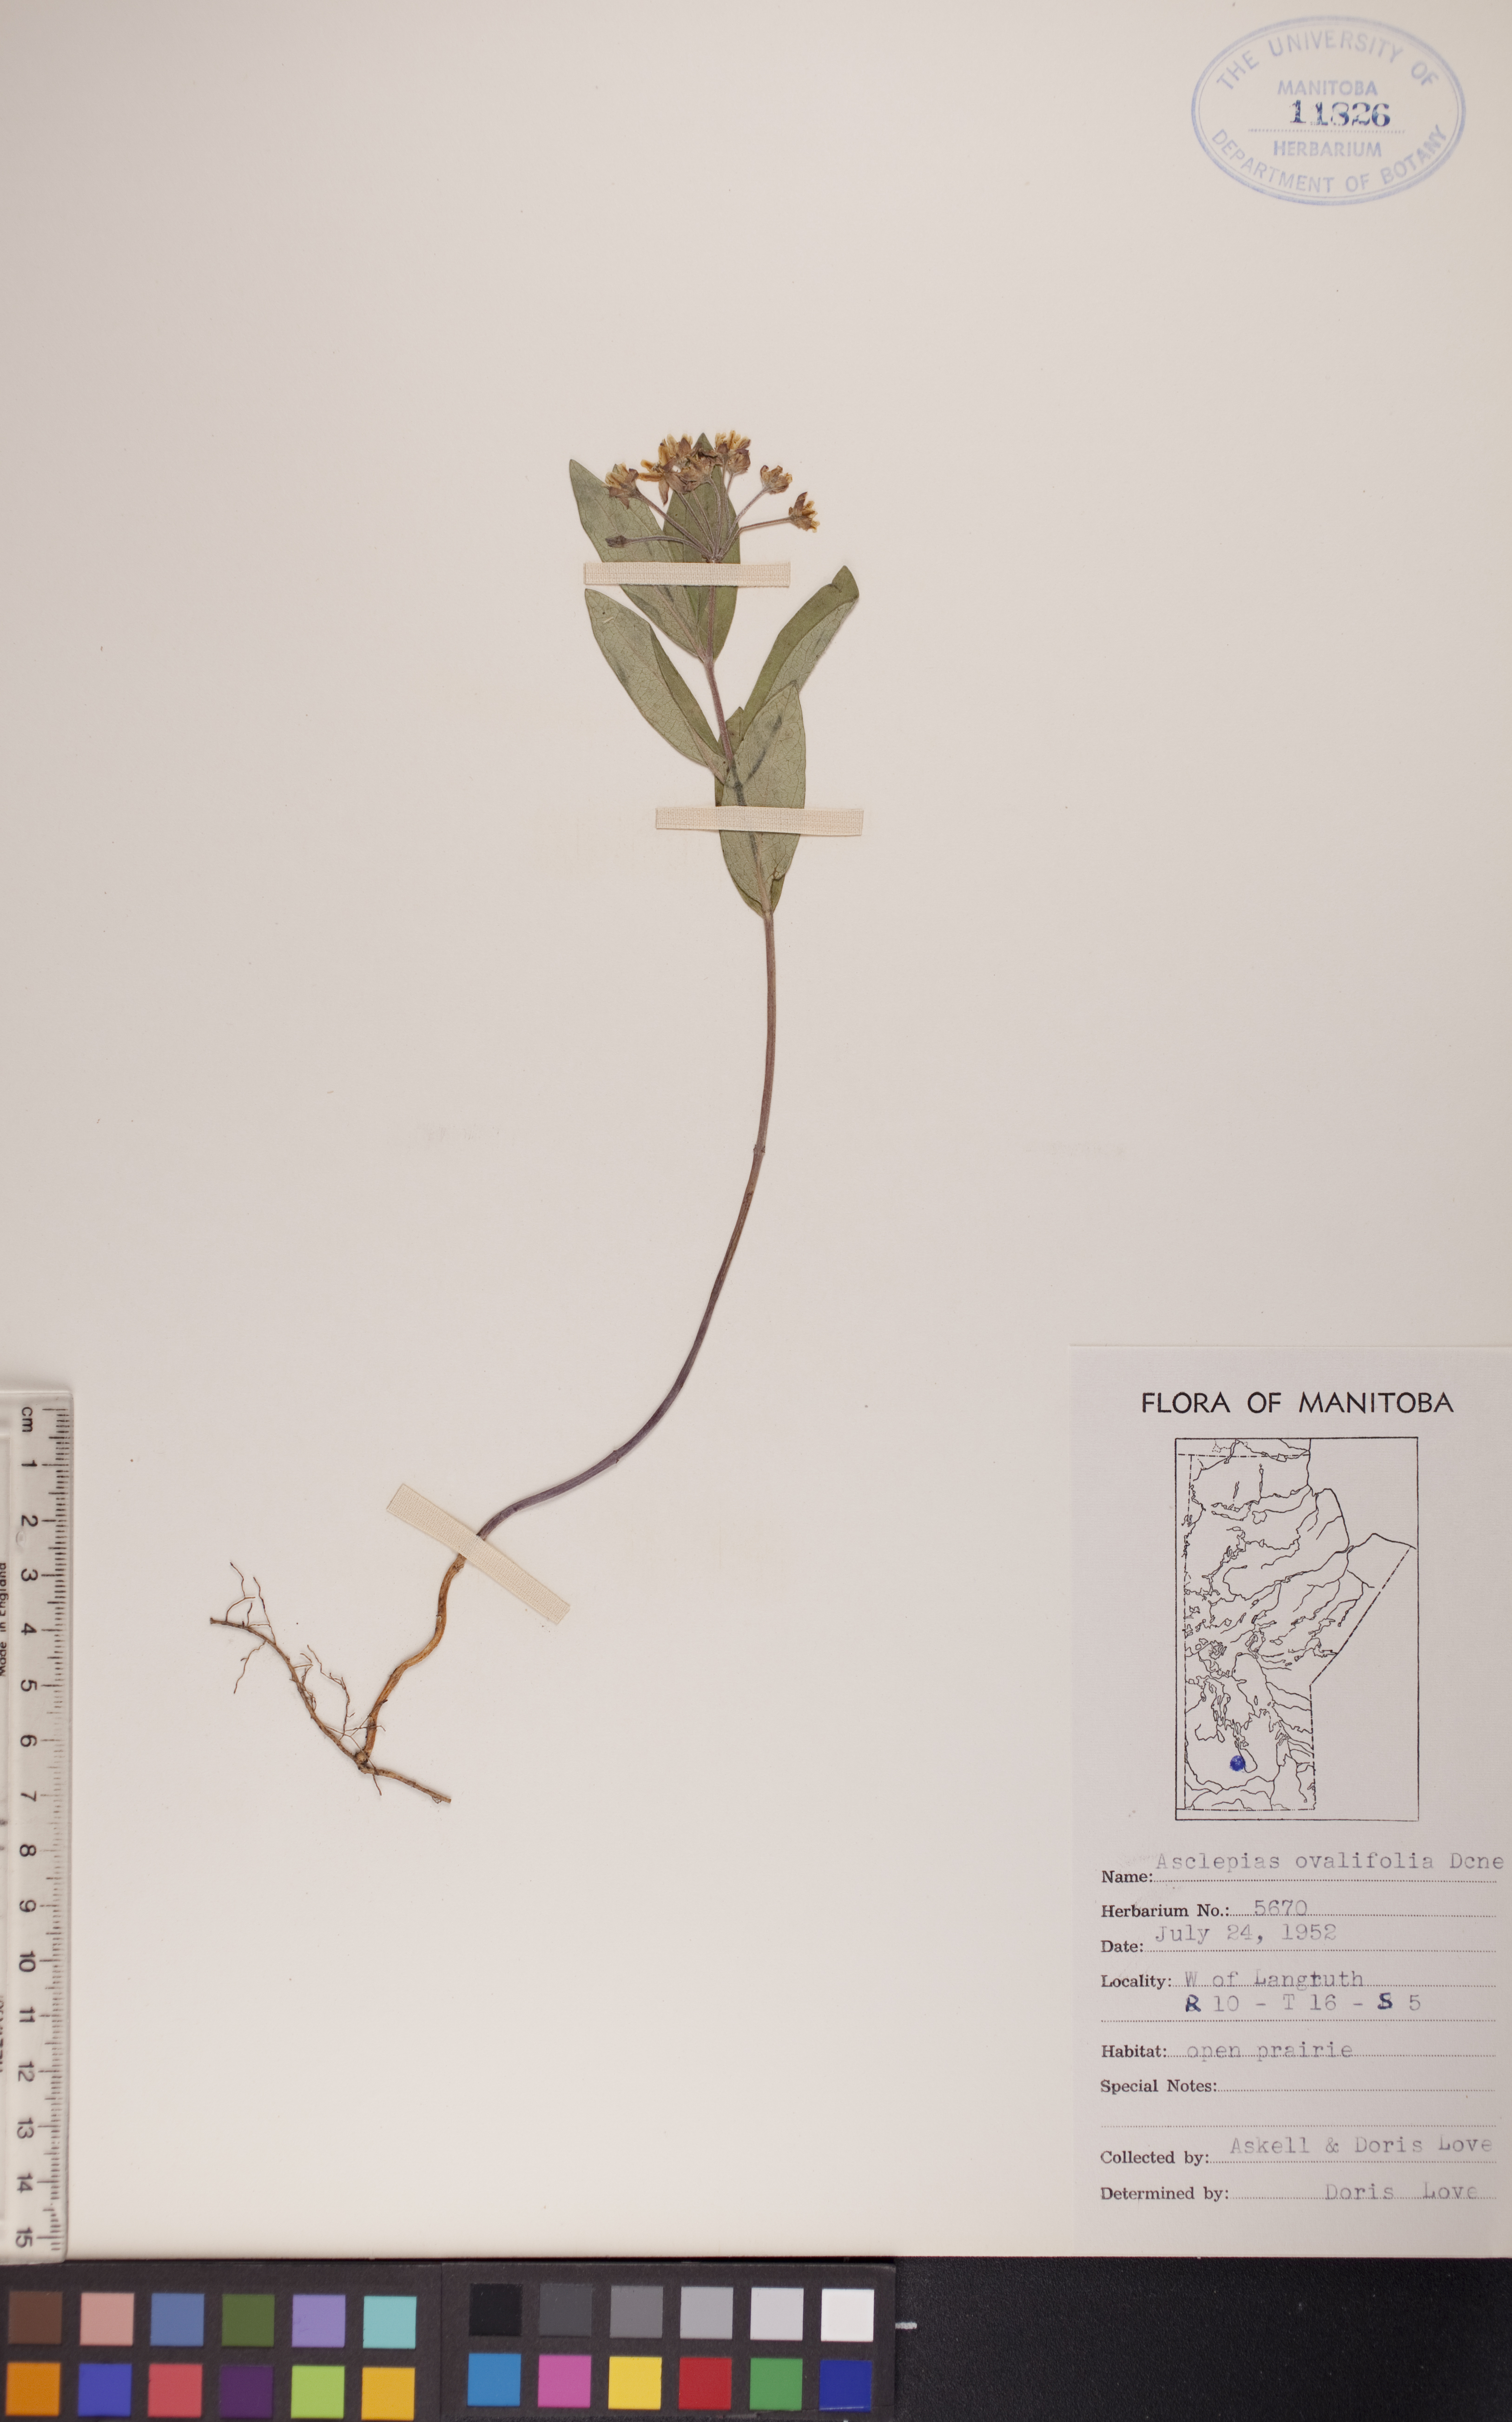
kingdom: Plantae
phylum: Tracheophyta
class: Magnoliopsida
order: Gentianales
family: Apocynaceae
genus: Asclepias
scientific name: Asclepias ovalifolia
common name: Dwarf milkweed
